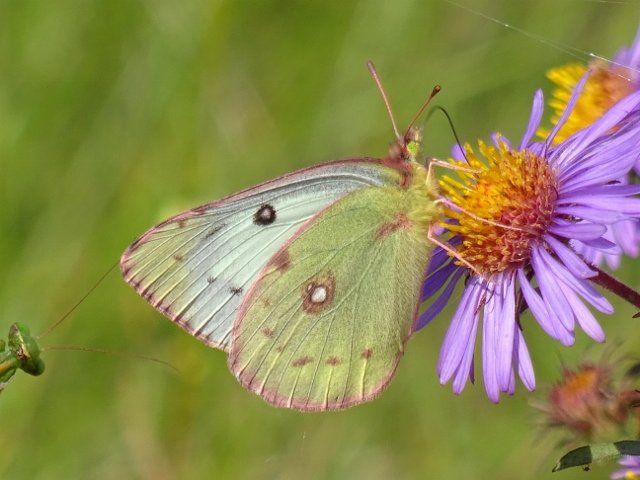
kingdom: Animalia
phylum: Arthropoda
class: Insecta
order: Lepidoptera
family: Pieridae
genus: Colias
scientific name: Colias philodice
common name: Clouded Sulphur
